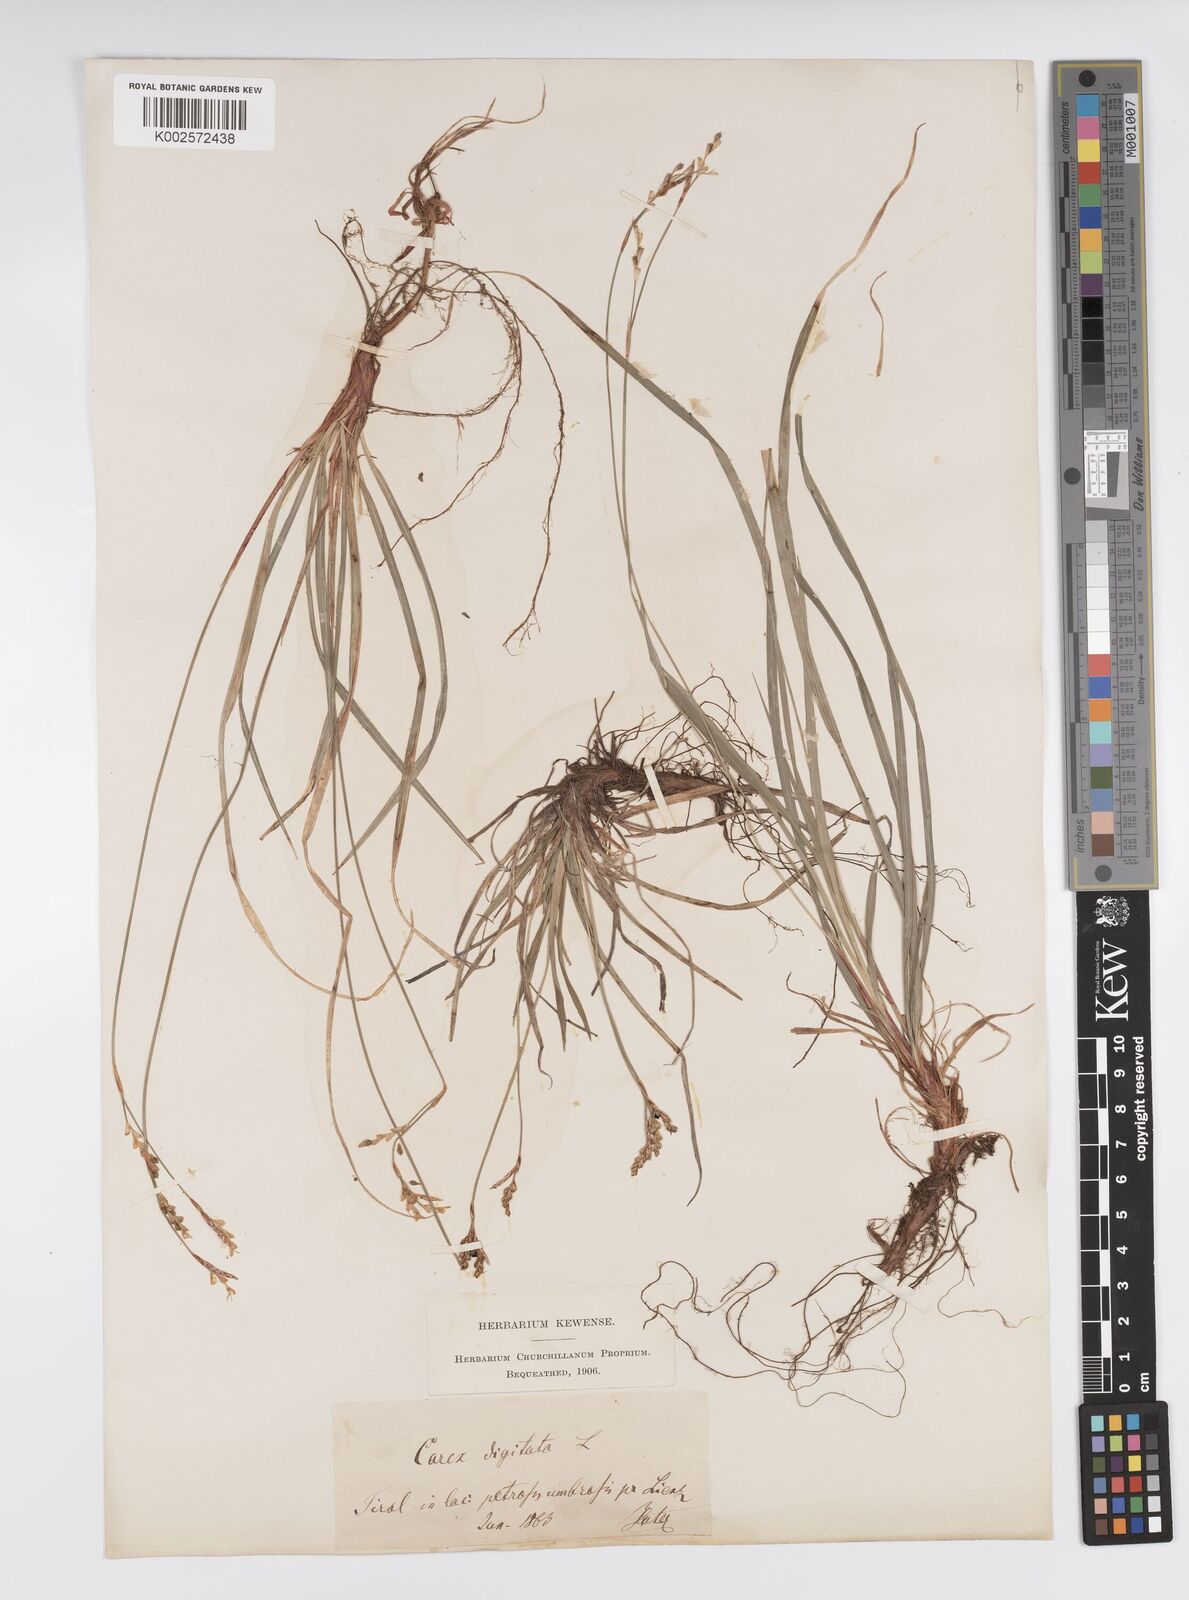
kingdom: Plantae
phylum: Tracheophyta
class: Liliopsida
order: Poales
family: Cyperaceae
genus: Carex
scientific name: Carex digitata
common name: Fingered sedge
